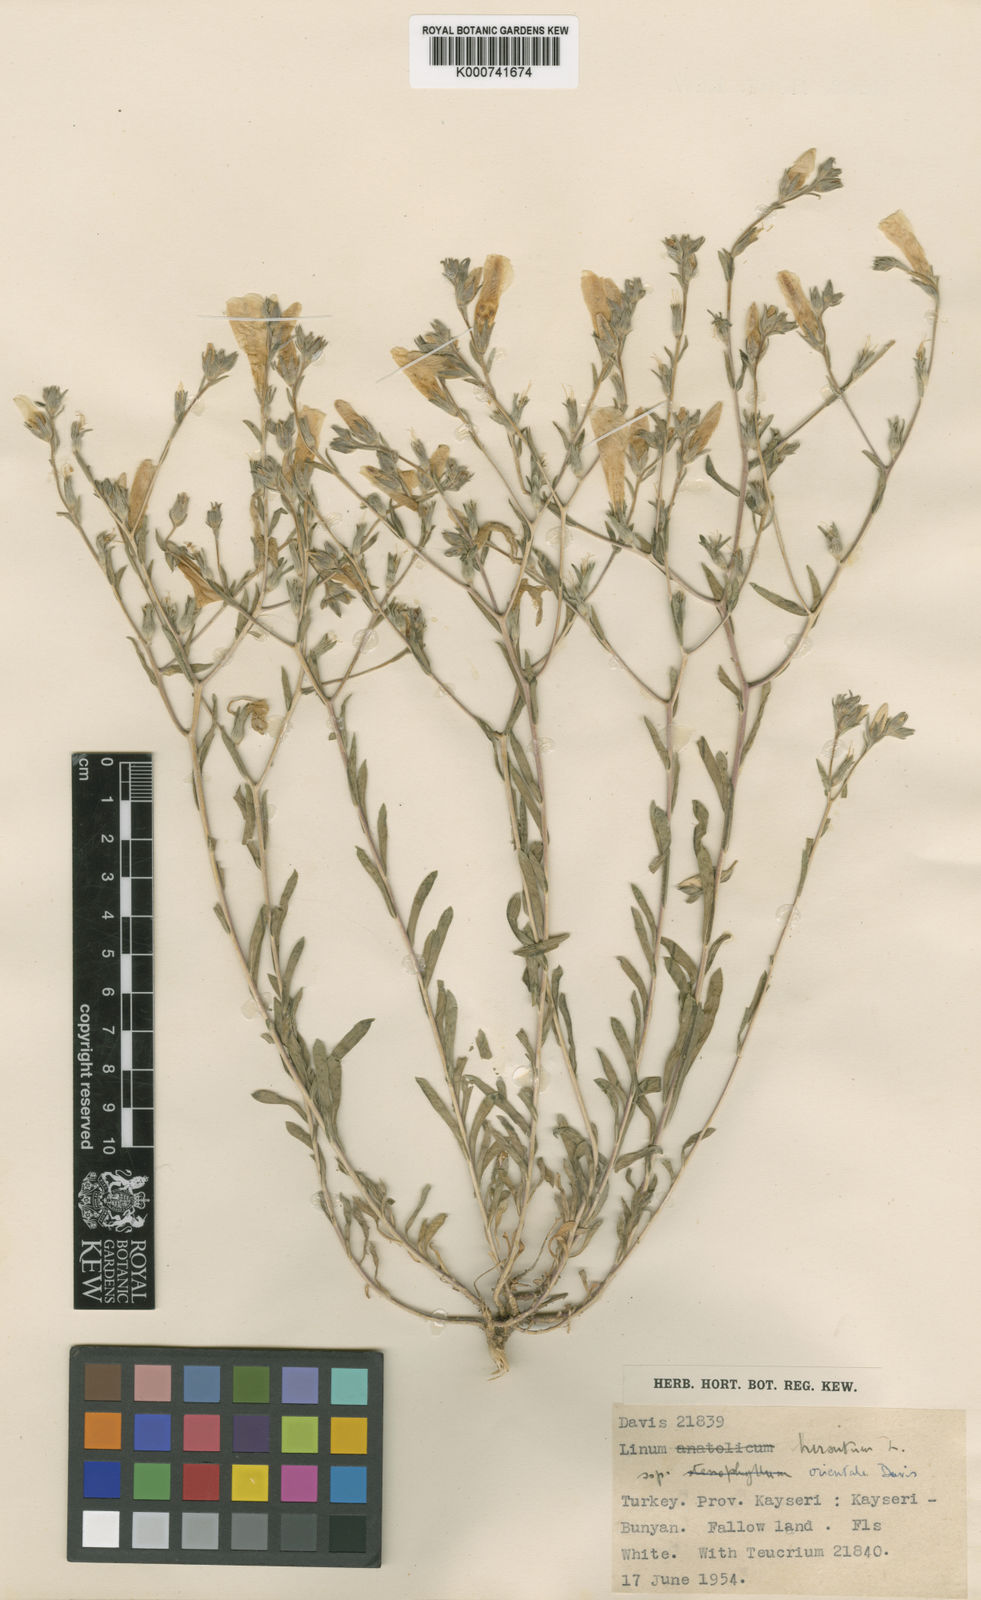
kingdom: Plantae
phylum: Tracheophyta
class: Magnoliopsida
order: Malpighiales
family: Linaceae
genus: Linum
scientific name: Linum hirsutum
